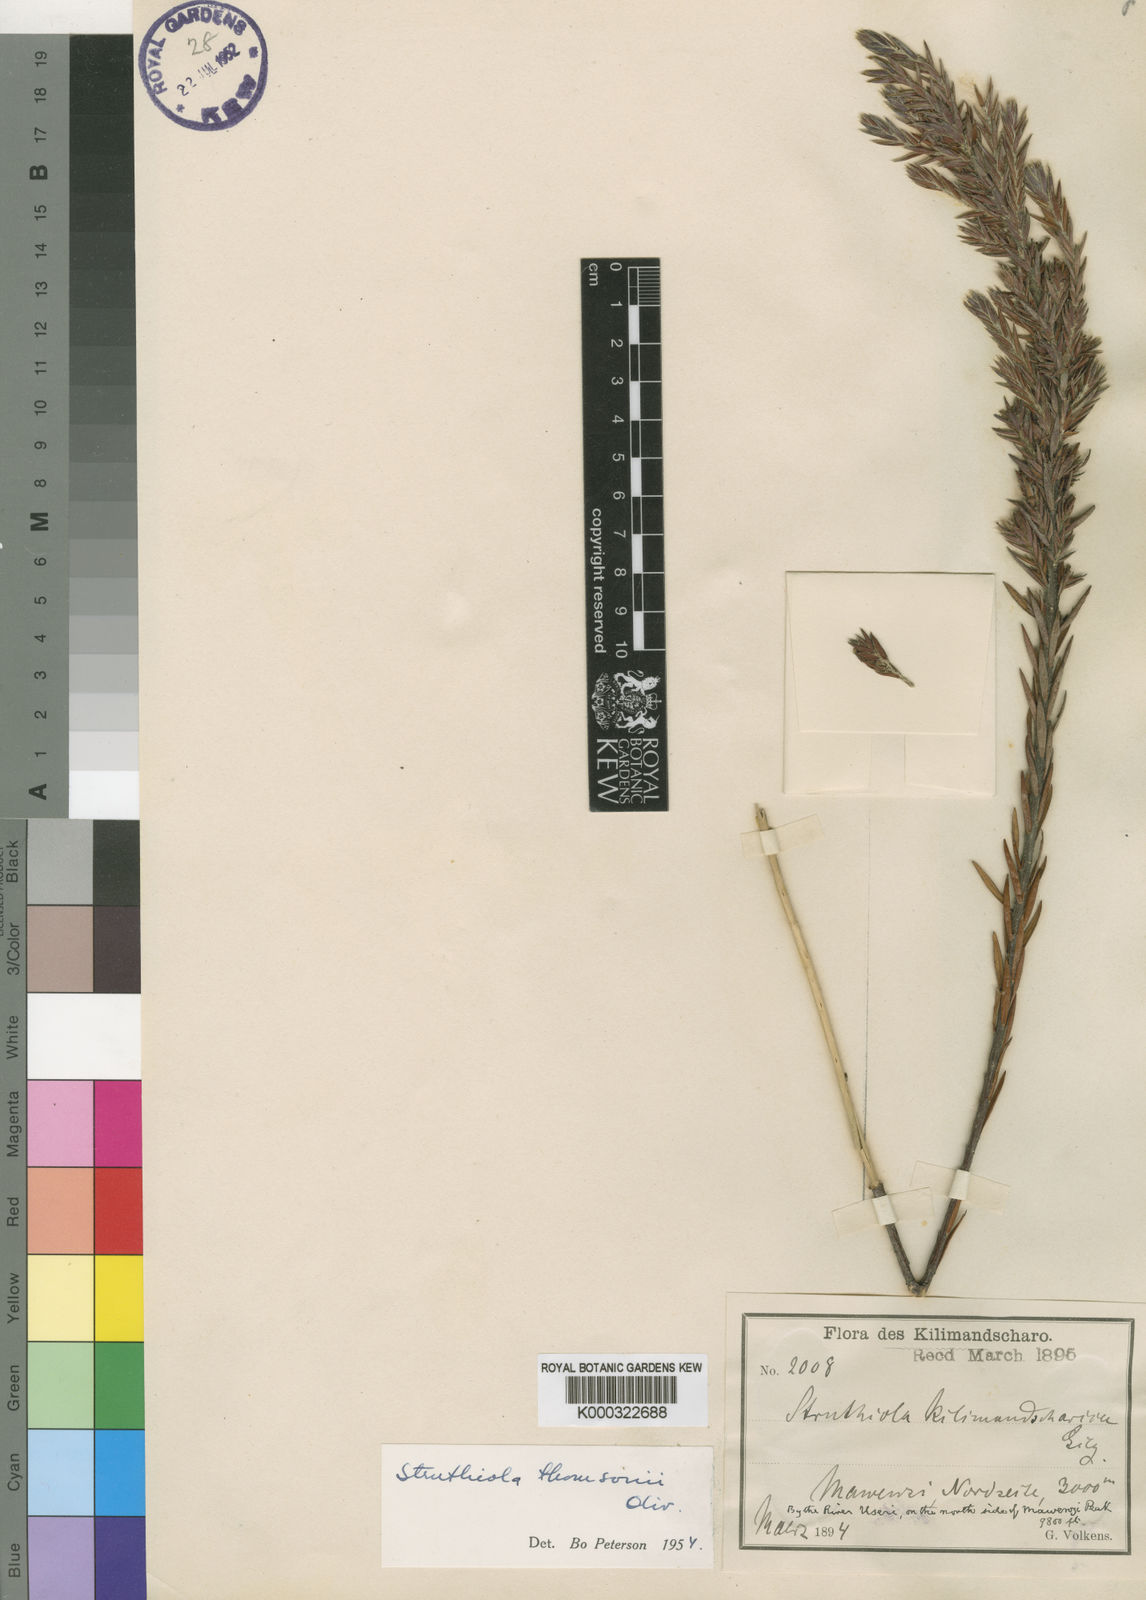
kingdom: Plantae
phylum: Tracheophyta
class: Magnoliopsida
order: Malvales
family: Thymelaeaceae
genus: Struthiola
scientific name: Struthiola thomsonii
